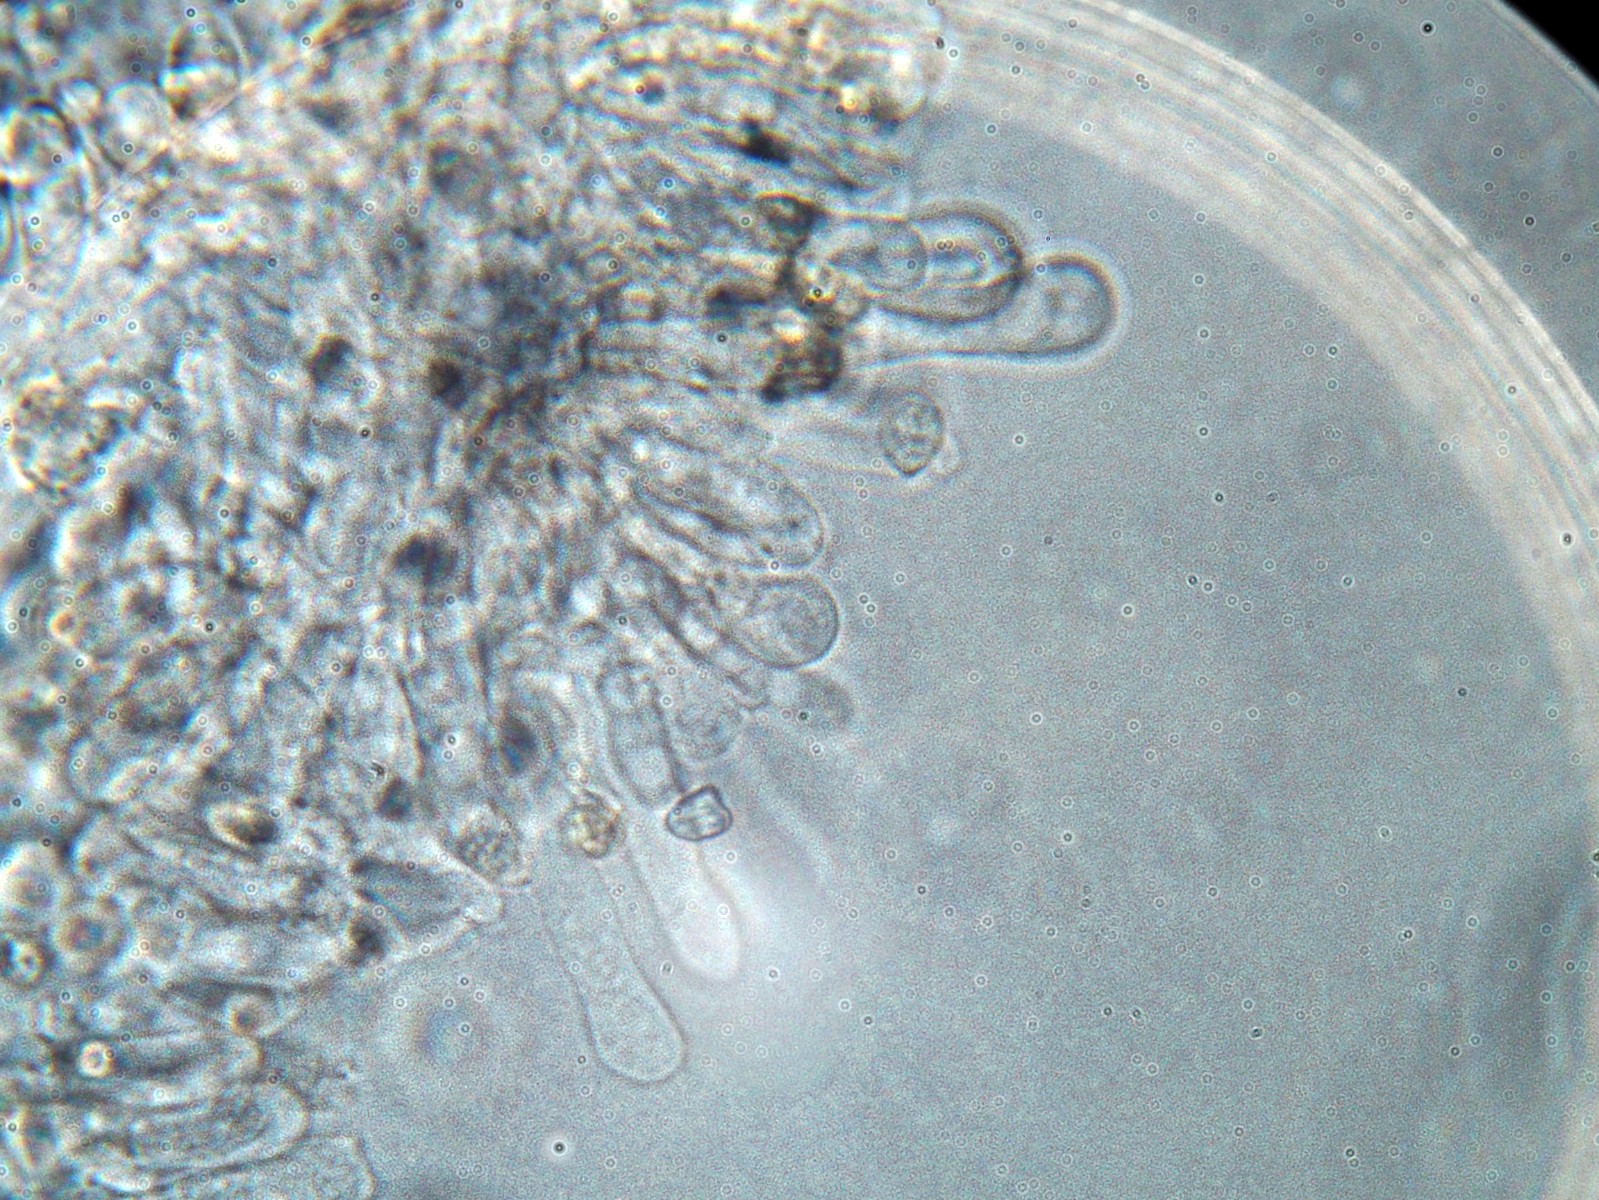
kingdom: Fungi
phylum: Basidiomycota
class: Agaricomycetes
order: Agaricales
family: Tubariaceae
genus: Flammulaster
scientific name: Flammulaster carpophilus
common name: blegrosa grynskælhat
